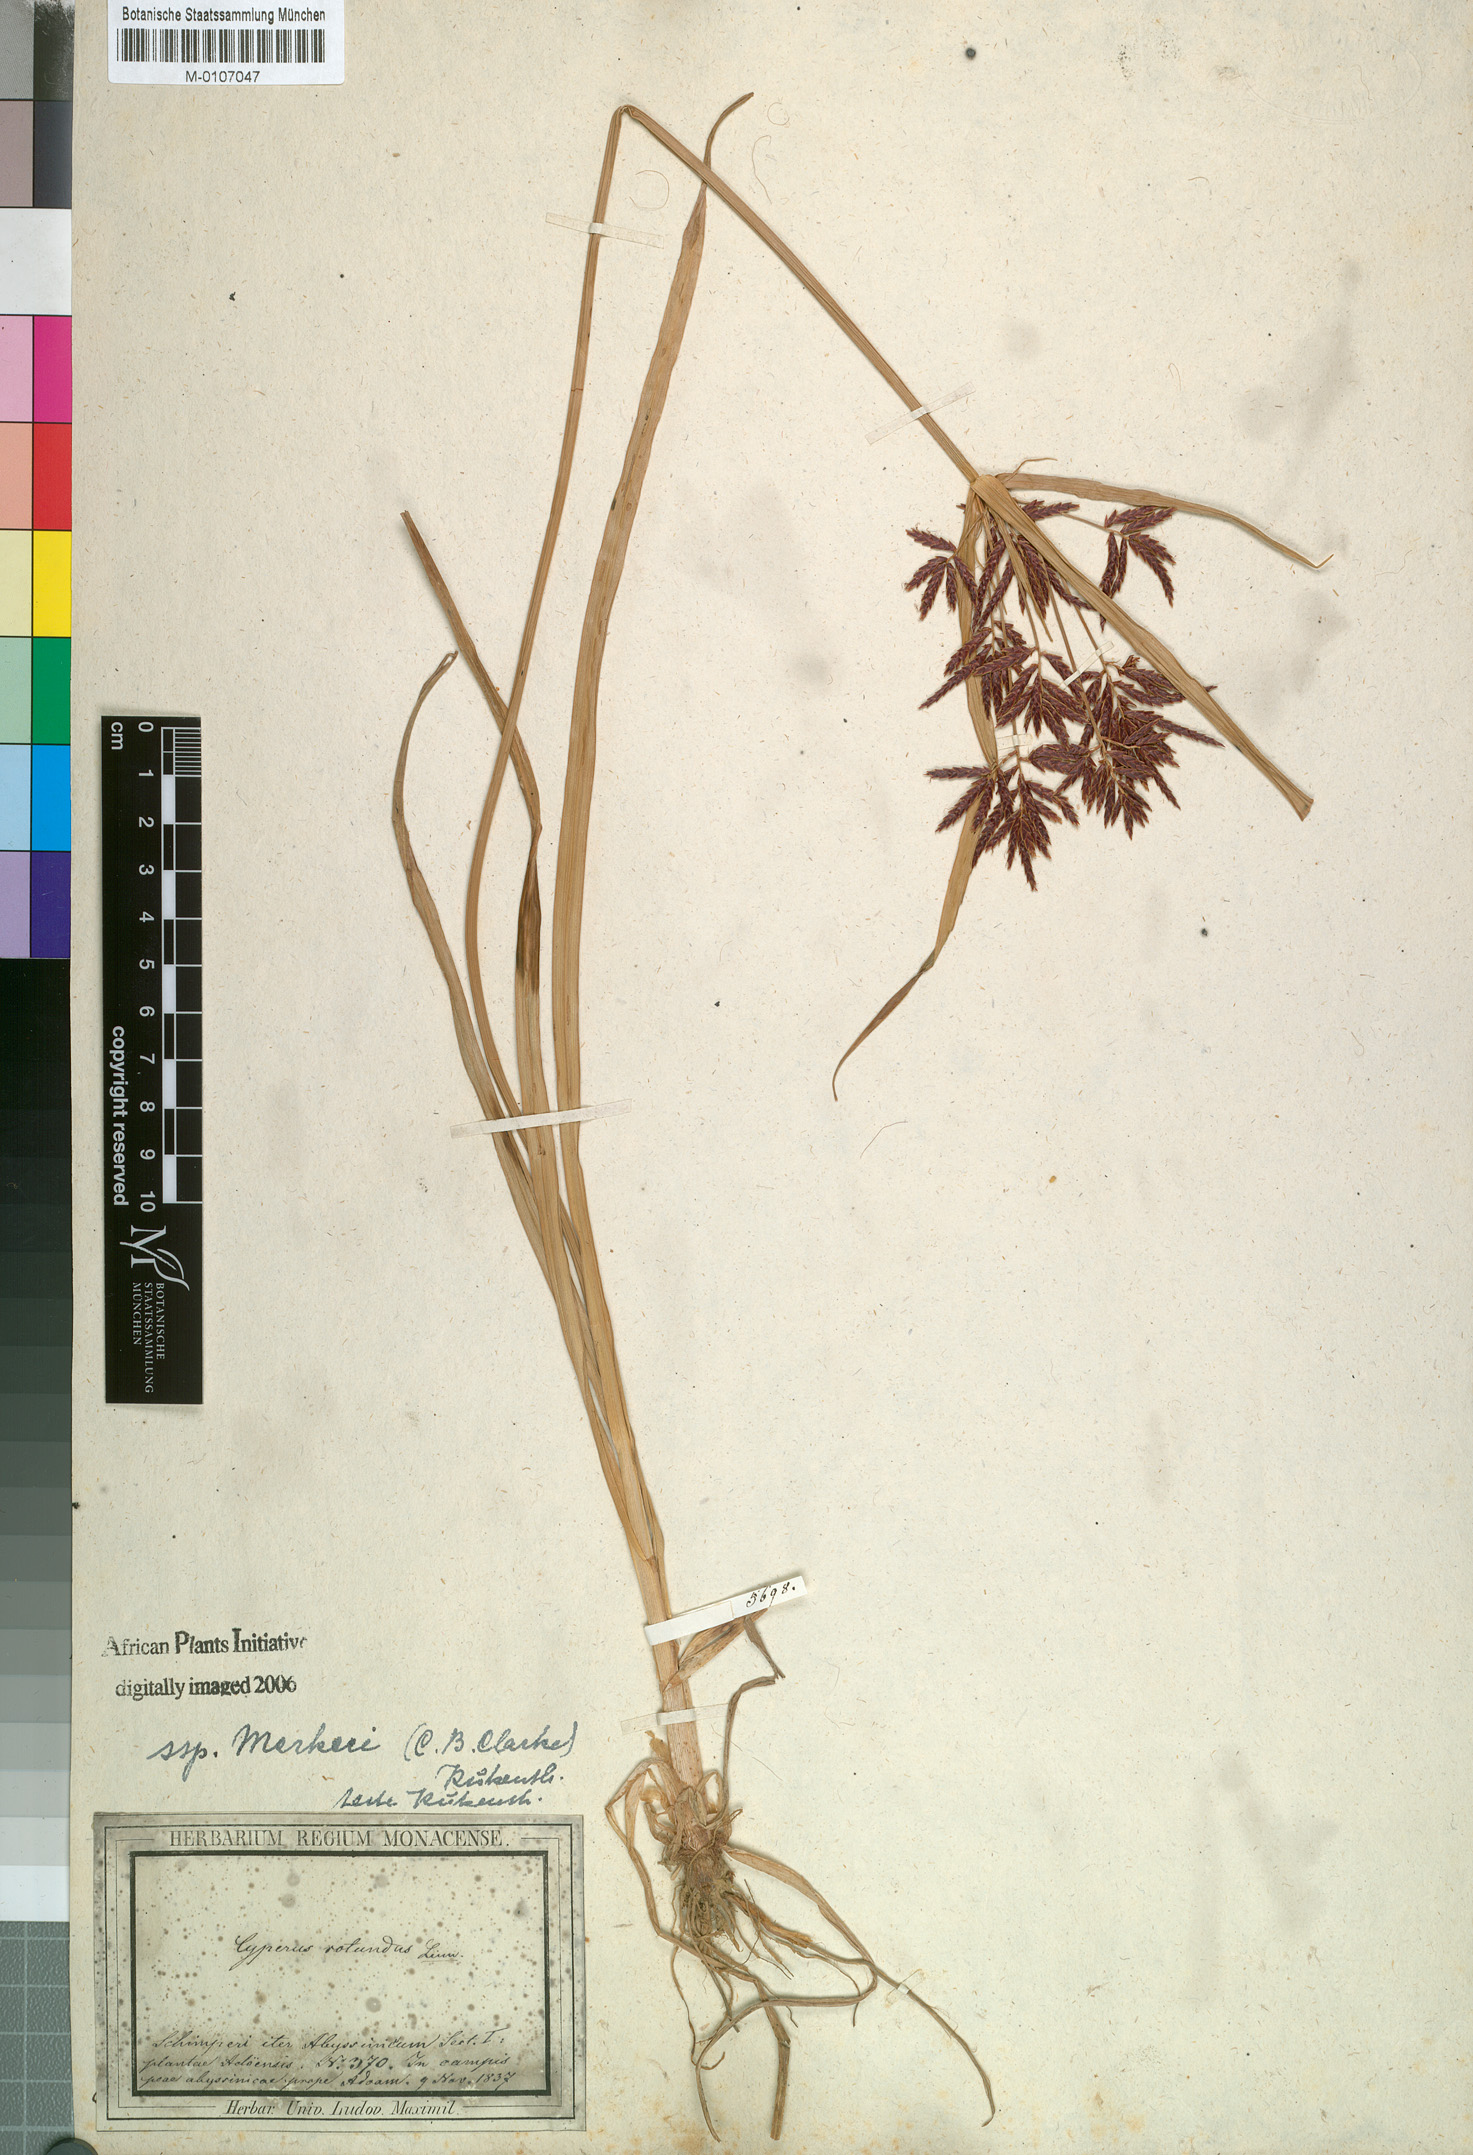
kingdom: Plantae
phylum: Tracheophyta
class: Liliopsida
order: Poales
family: Cyperaceae
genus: Cyperus
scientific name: Cyperus rotundus
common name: Nutgrass
